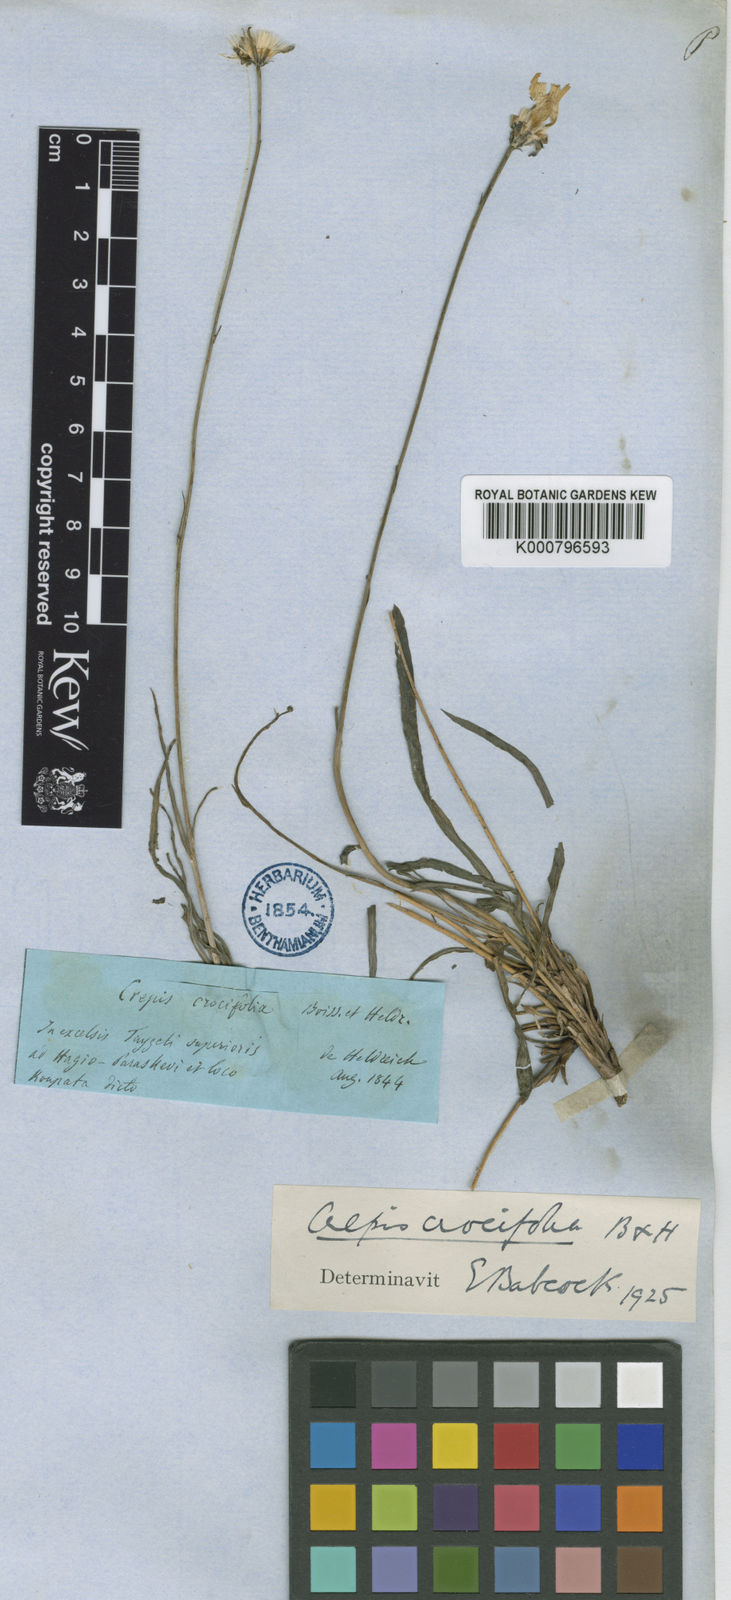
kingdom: Plantae
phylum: Tracheophyta
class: Magnoliopsida
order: Asterales
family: Asteraceae
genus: Phitosia
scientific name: Phitosia crocifolia
